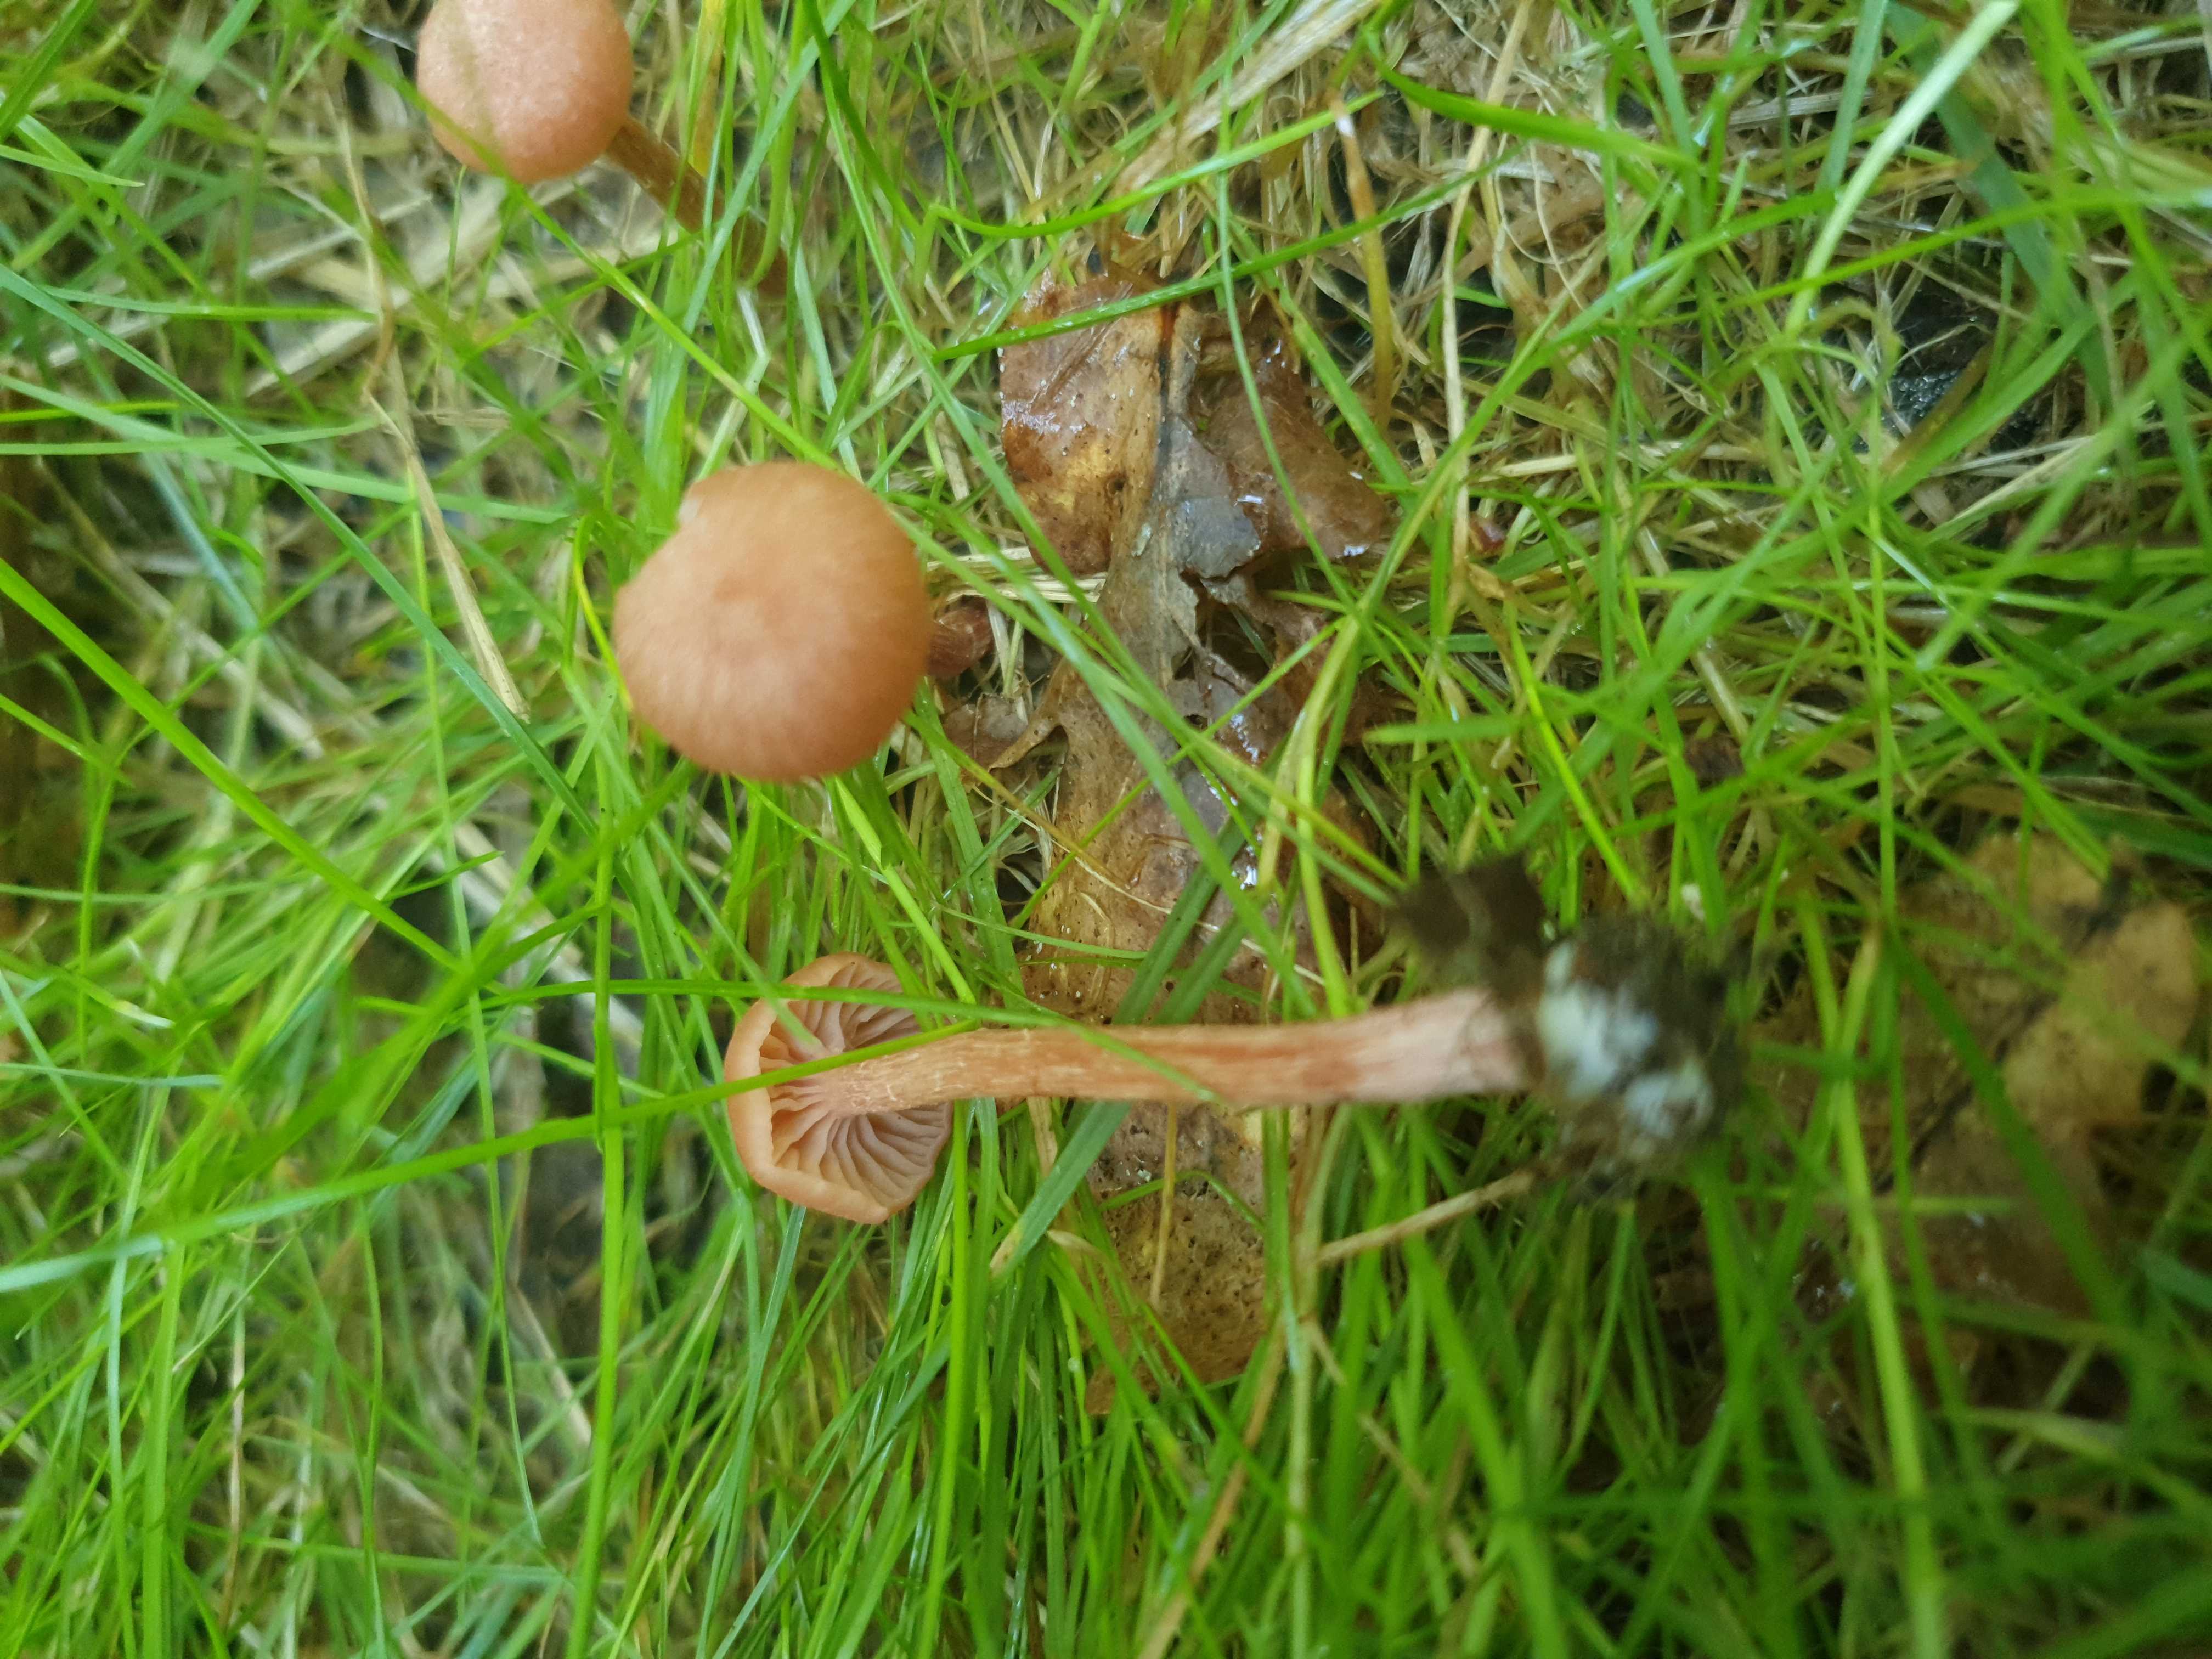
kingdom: Fungi
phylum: Basidiomycota
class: Agaricomycetes
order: Agaricales
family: Hydnangiaceae
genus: Laccaria
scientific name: Laccaria laccata
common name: rød ametysthat
